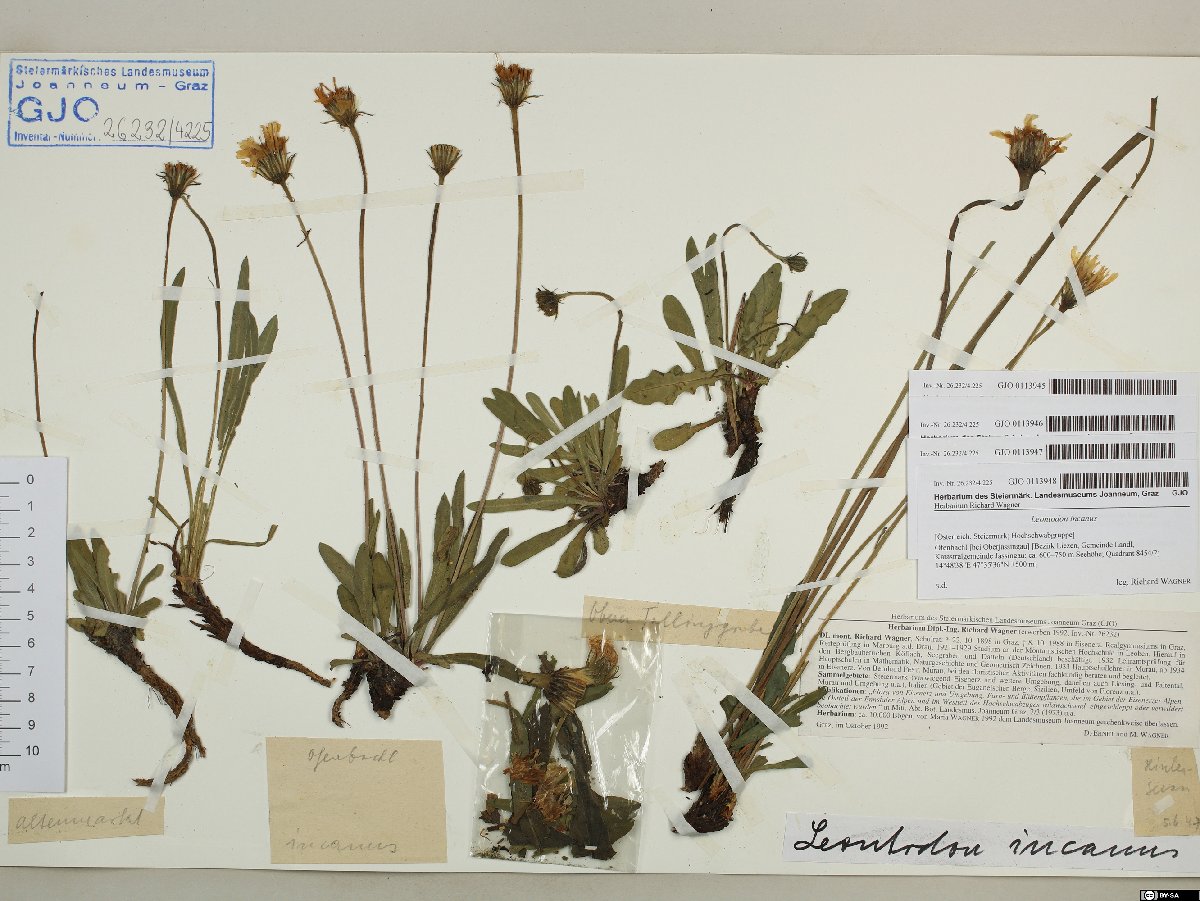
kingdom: Plantae
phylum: Tracheophyta
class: Magnoliopsida
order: Asterales
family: Asteraceae
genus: Leontodon
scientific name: Leontodon incanus
